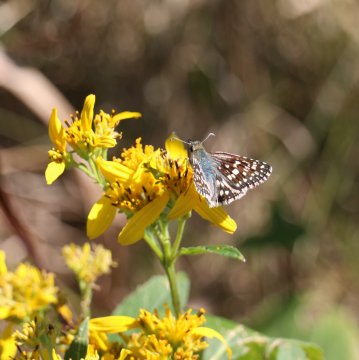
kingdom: Animalia
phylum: Arthropoda
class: Insecta
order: Lepidoptera
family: Hesperiidae
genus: Pyrgus
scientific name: Pyrgus communis
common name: Common Checkered-Skipper
